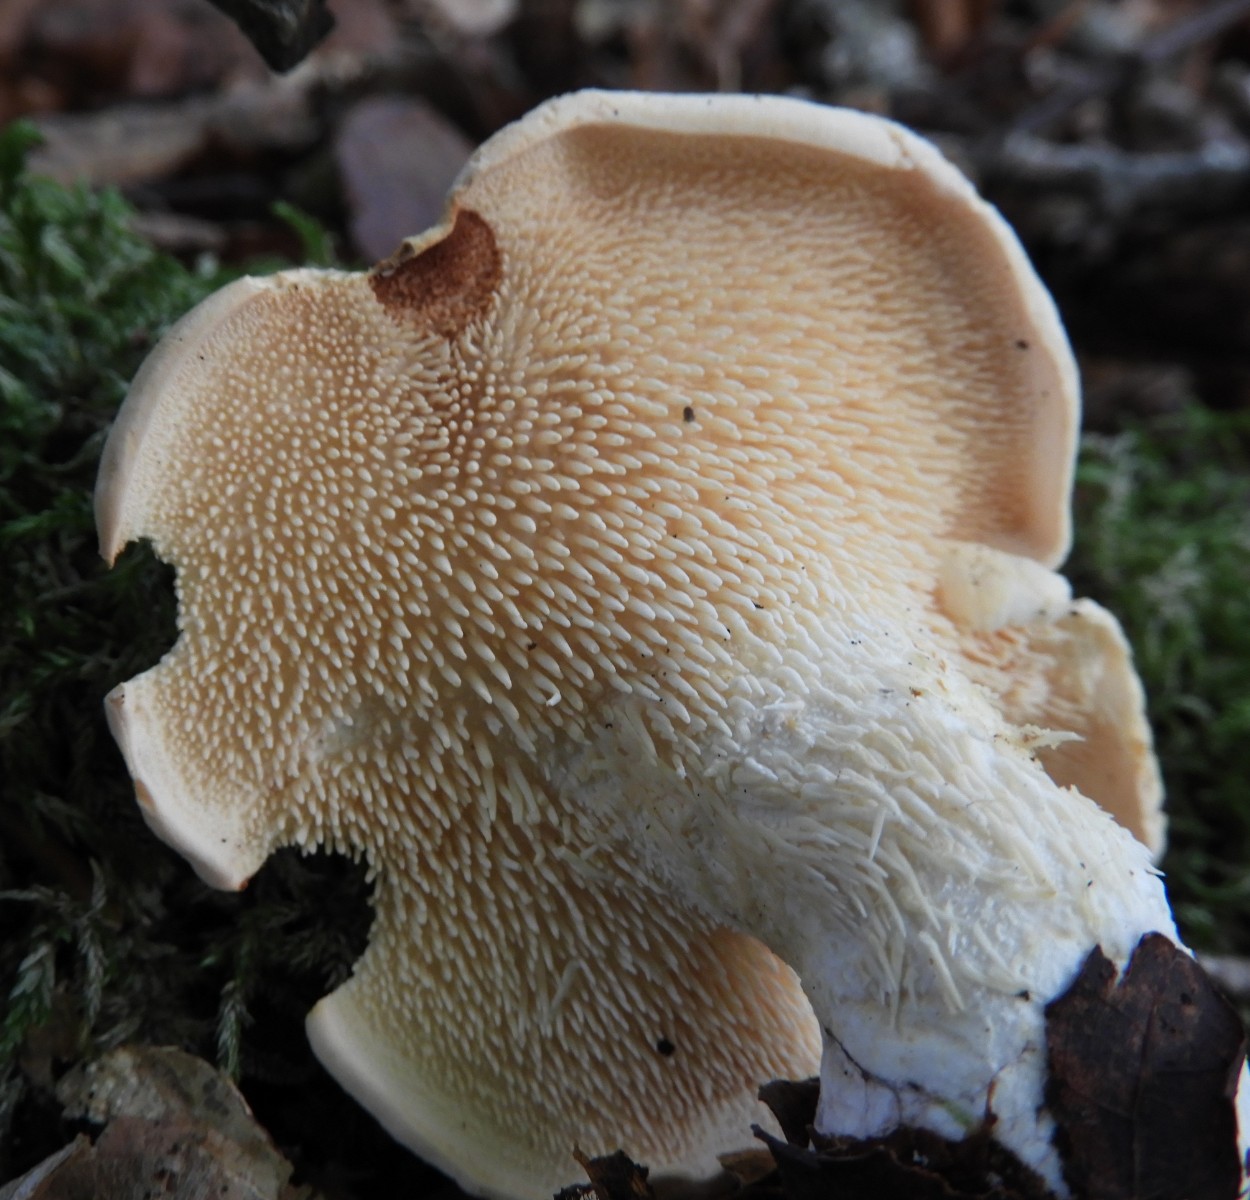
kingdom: Fungi
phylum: Basidiomycota
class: Agaricomycetes
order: Cantharellales
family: Hydnaceae
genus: Hydnum
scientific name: Hydnum repandum
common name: almindelig pigsvamp
